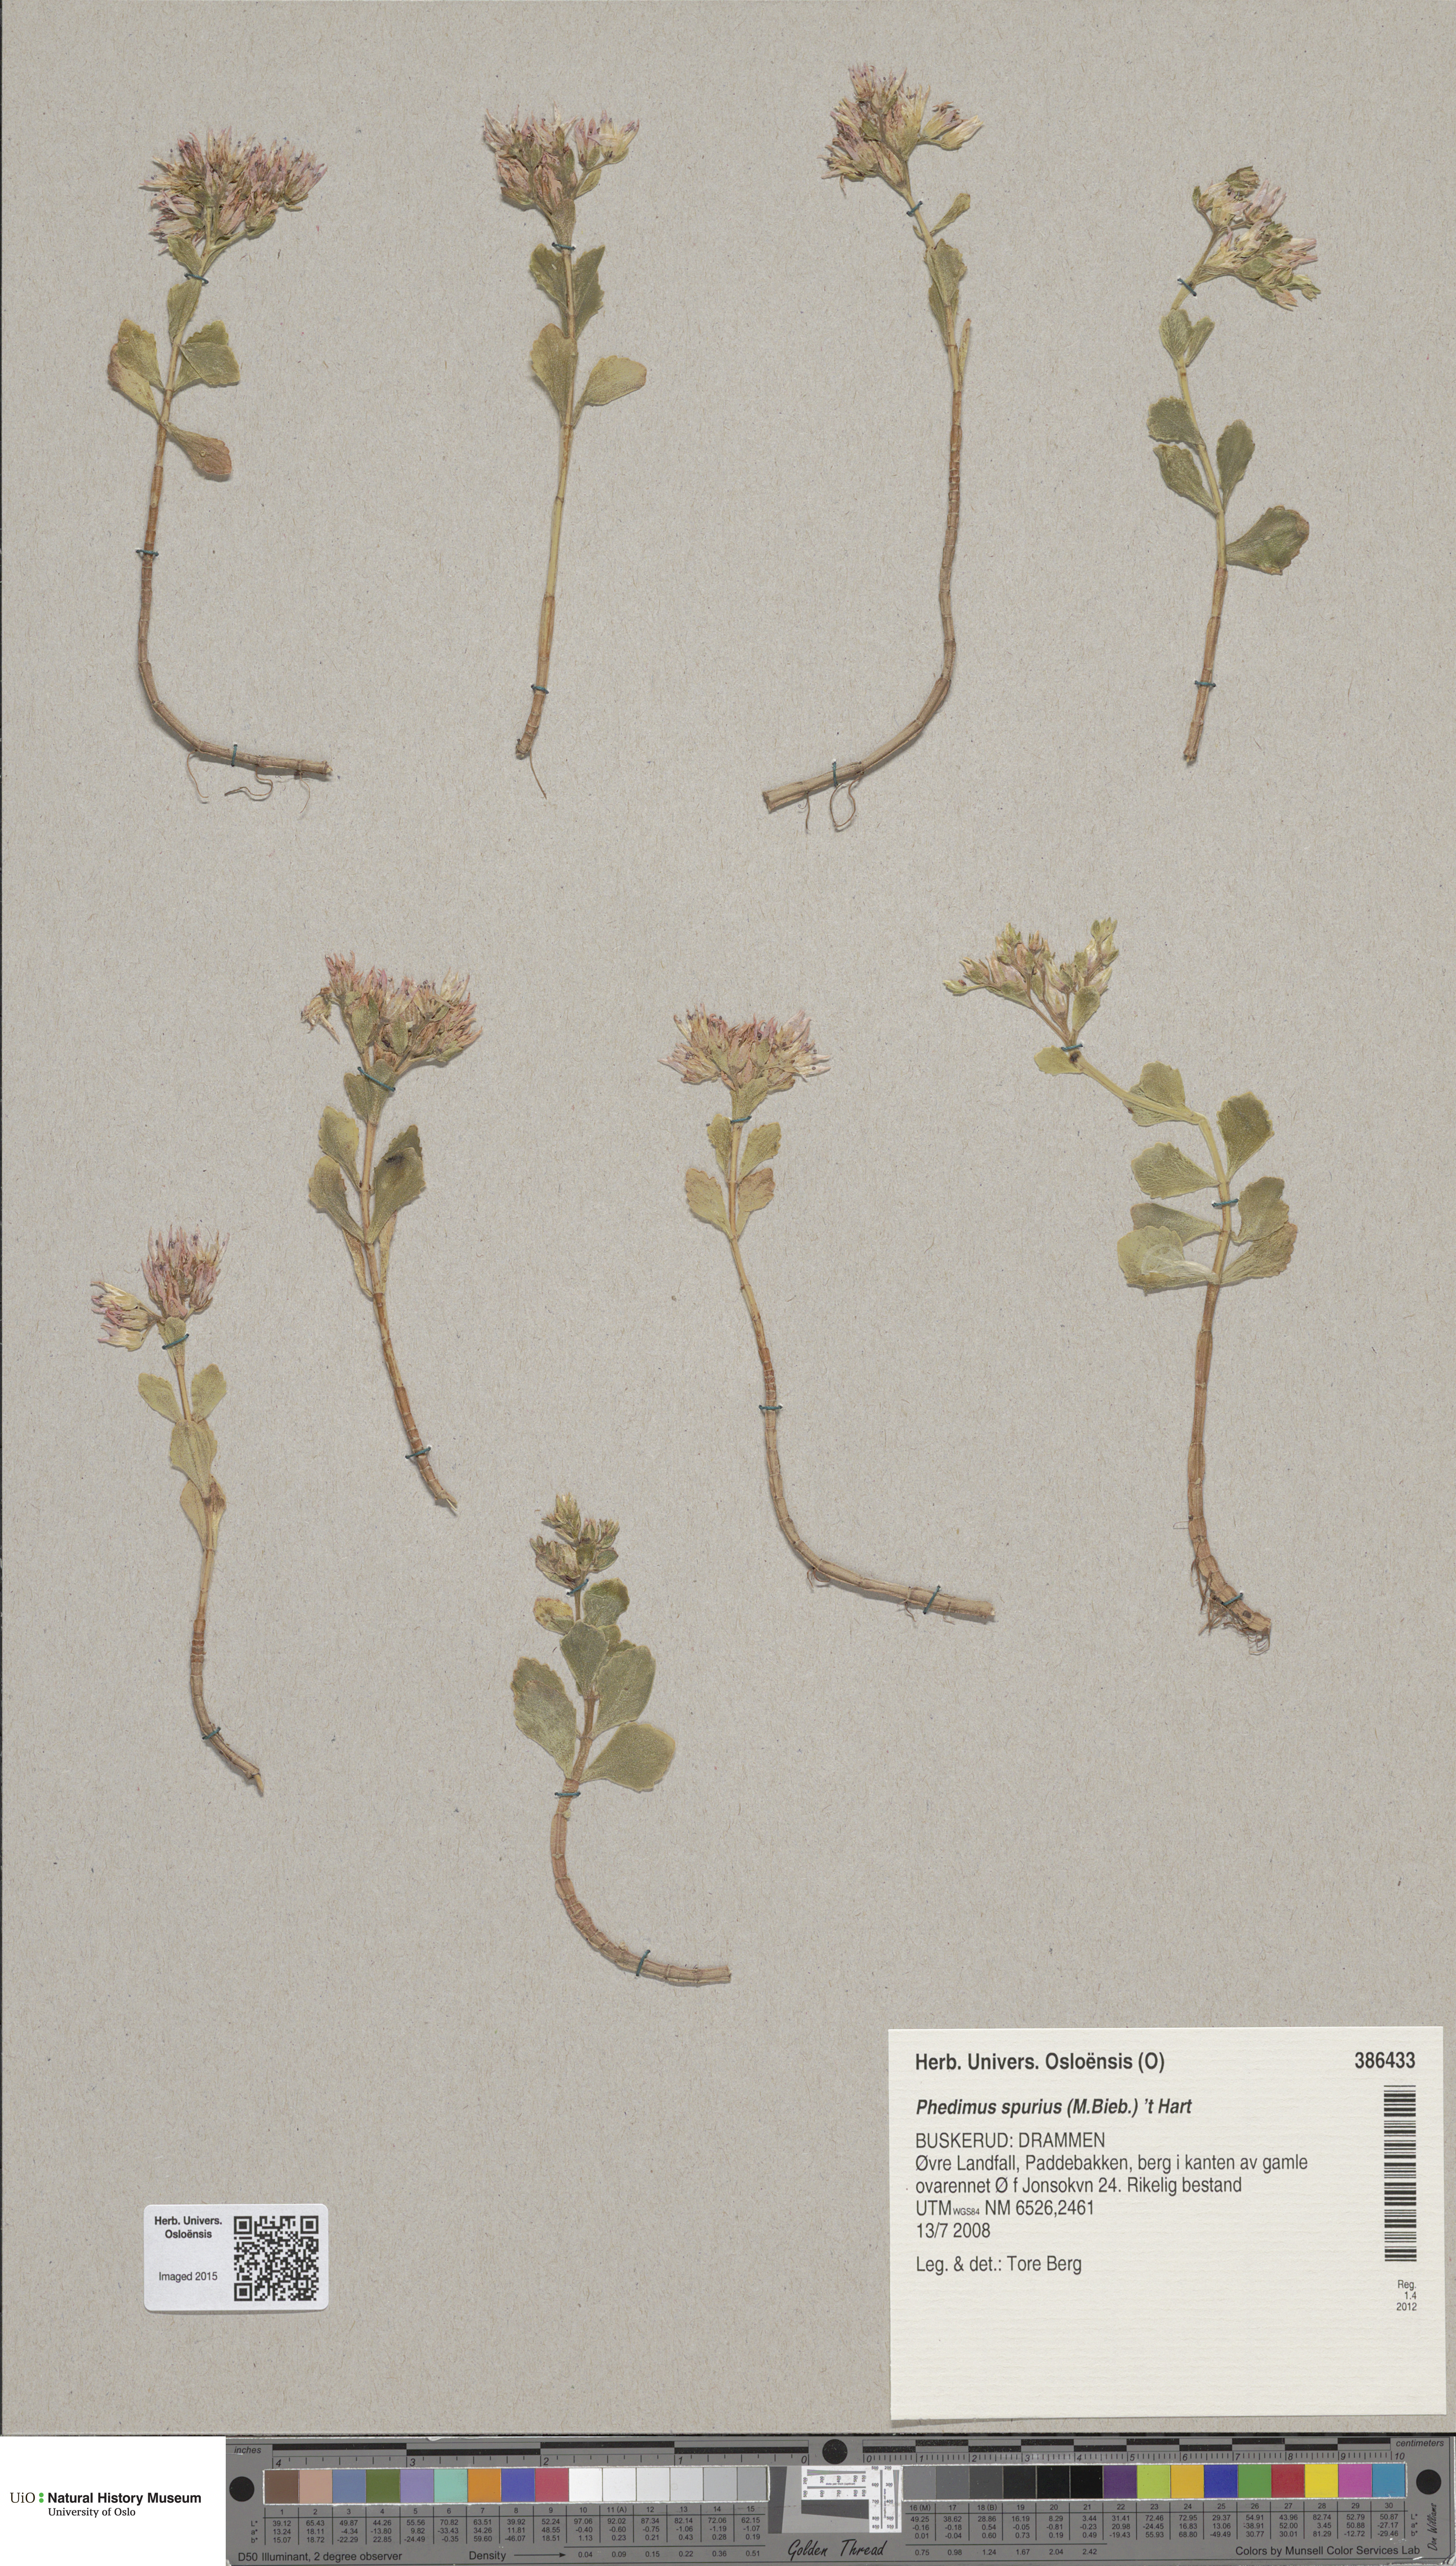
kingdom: Plantae
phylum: Tracheophyta
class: Magnoliopsida
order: Saxifragales
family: Crassulaceae
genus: Phedimus
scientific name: Phedimus spurius
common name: Caucasian stonecrop
